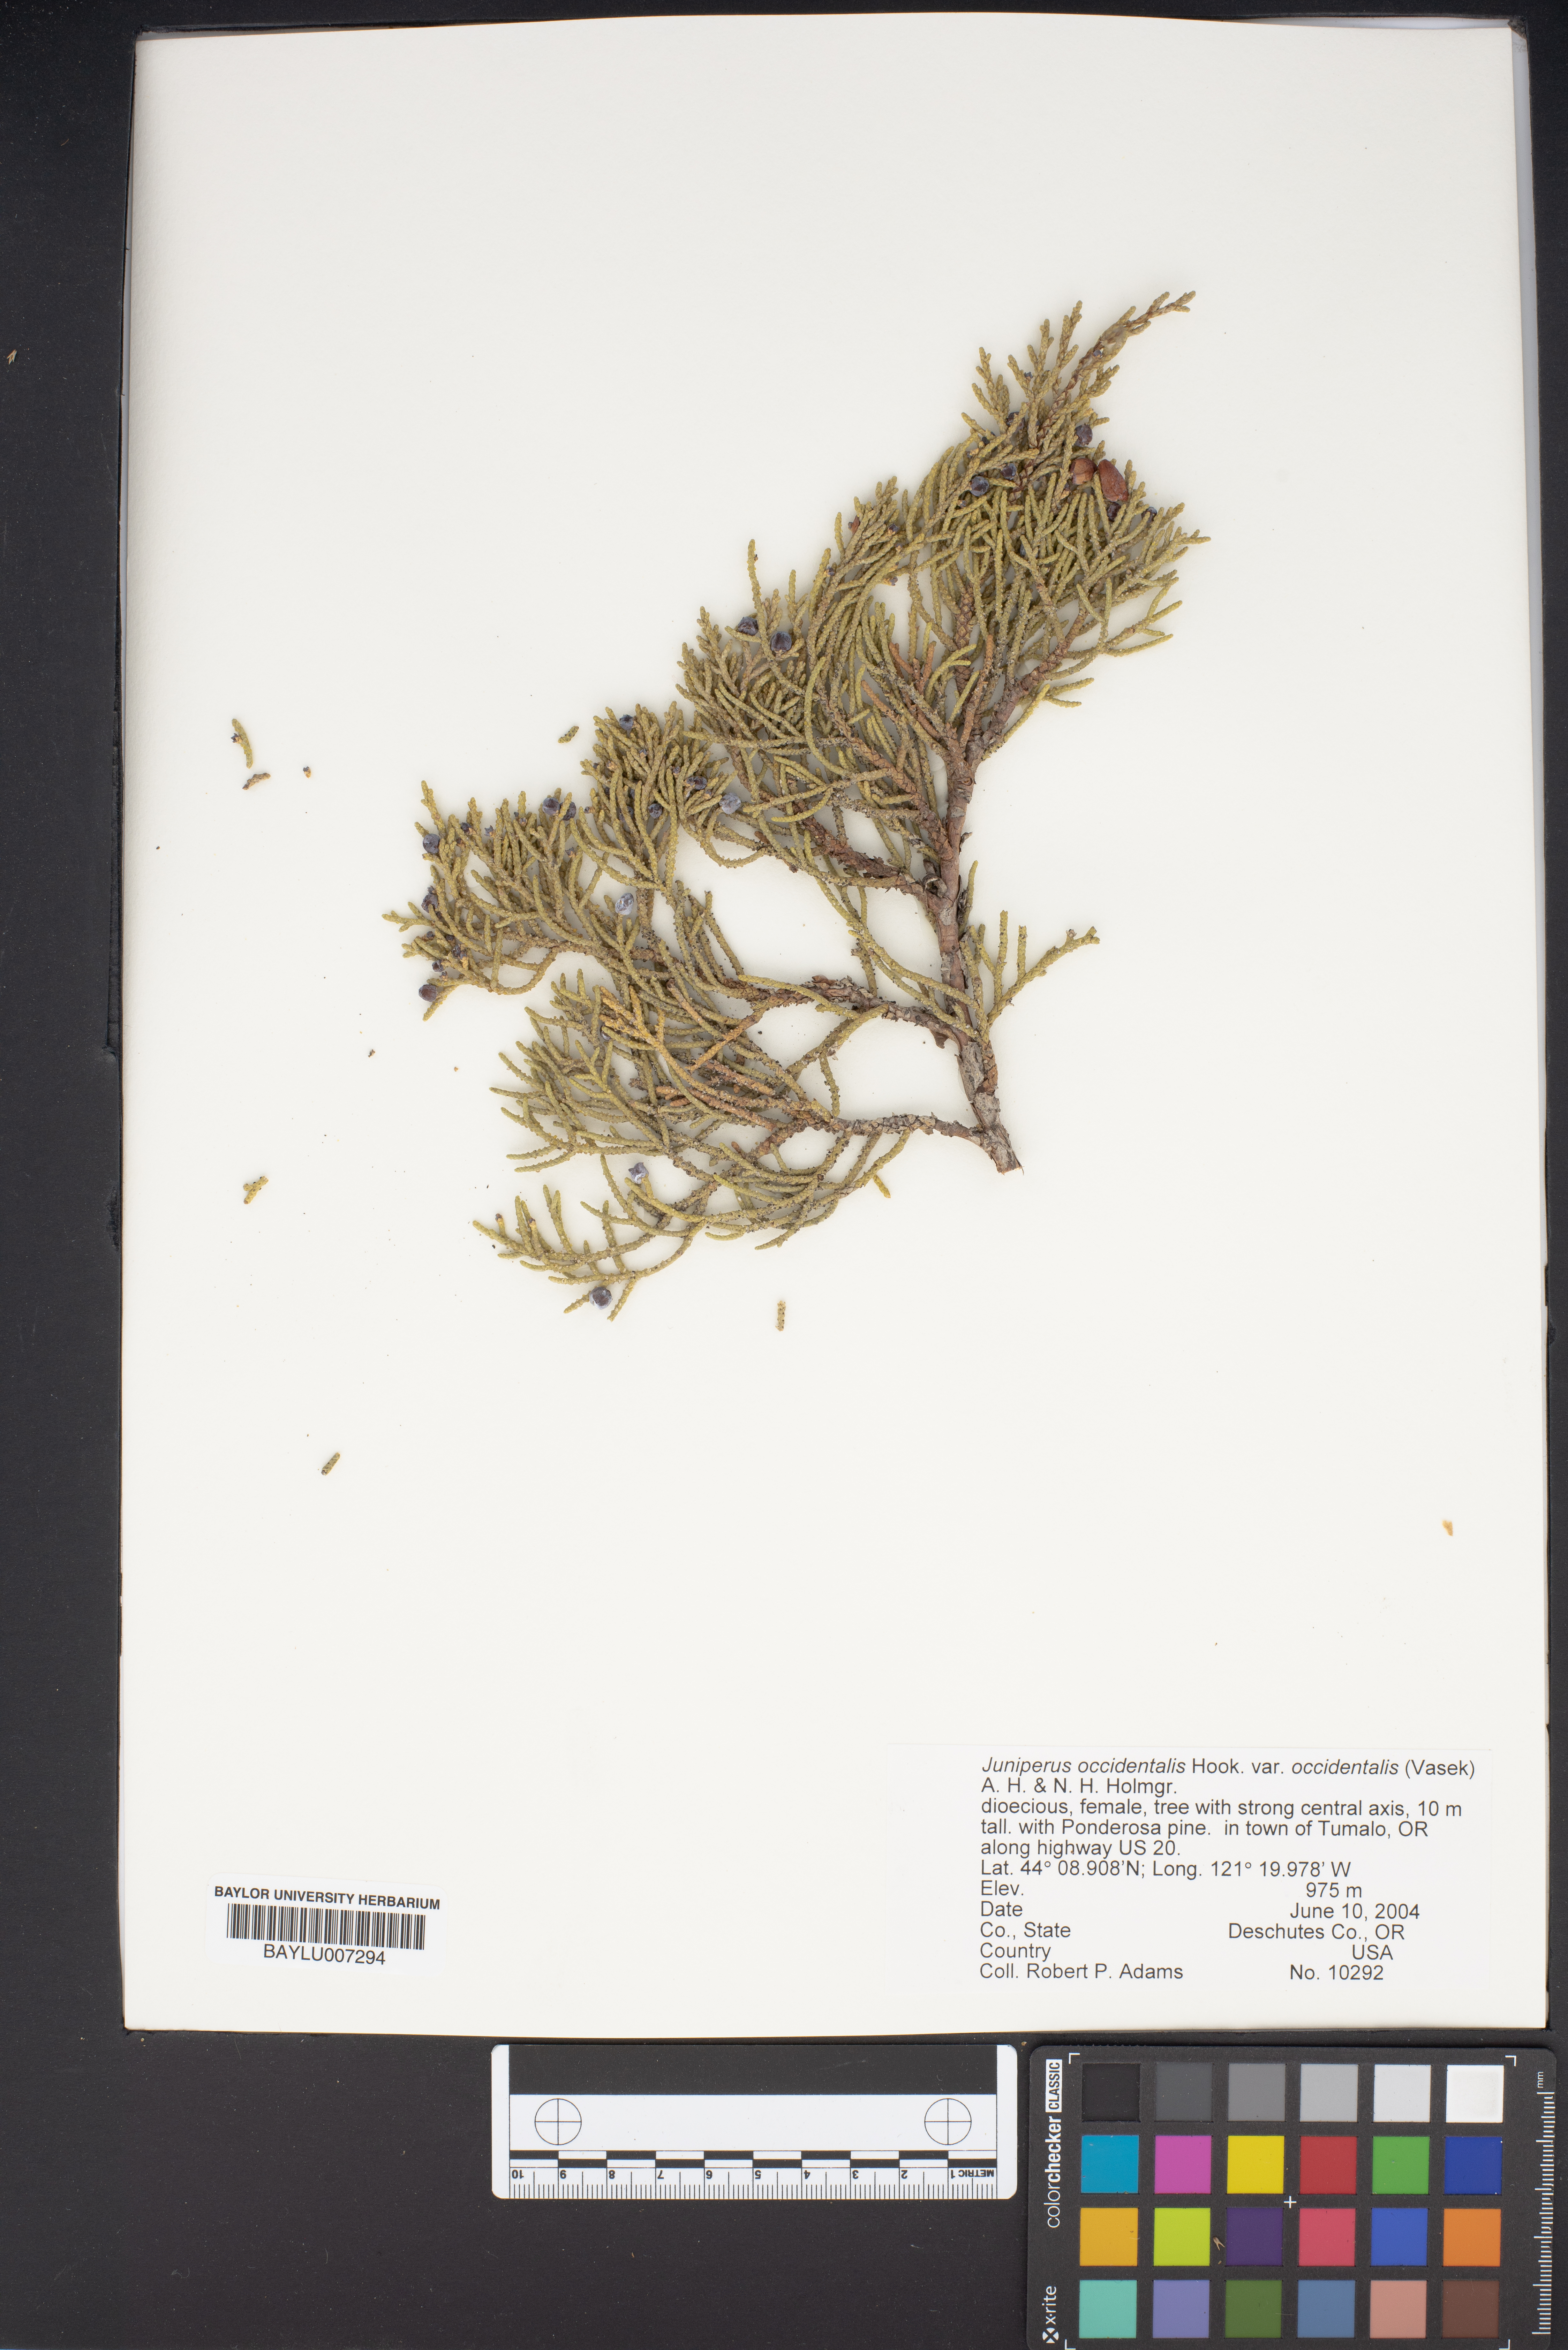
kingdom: Plantae
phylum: Tracheophyta
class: Pinopsida
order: Pinales
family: Cupressaceae
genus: Juniperus
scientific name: Juniperus occidentalis
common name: Western juniper
